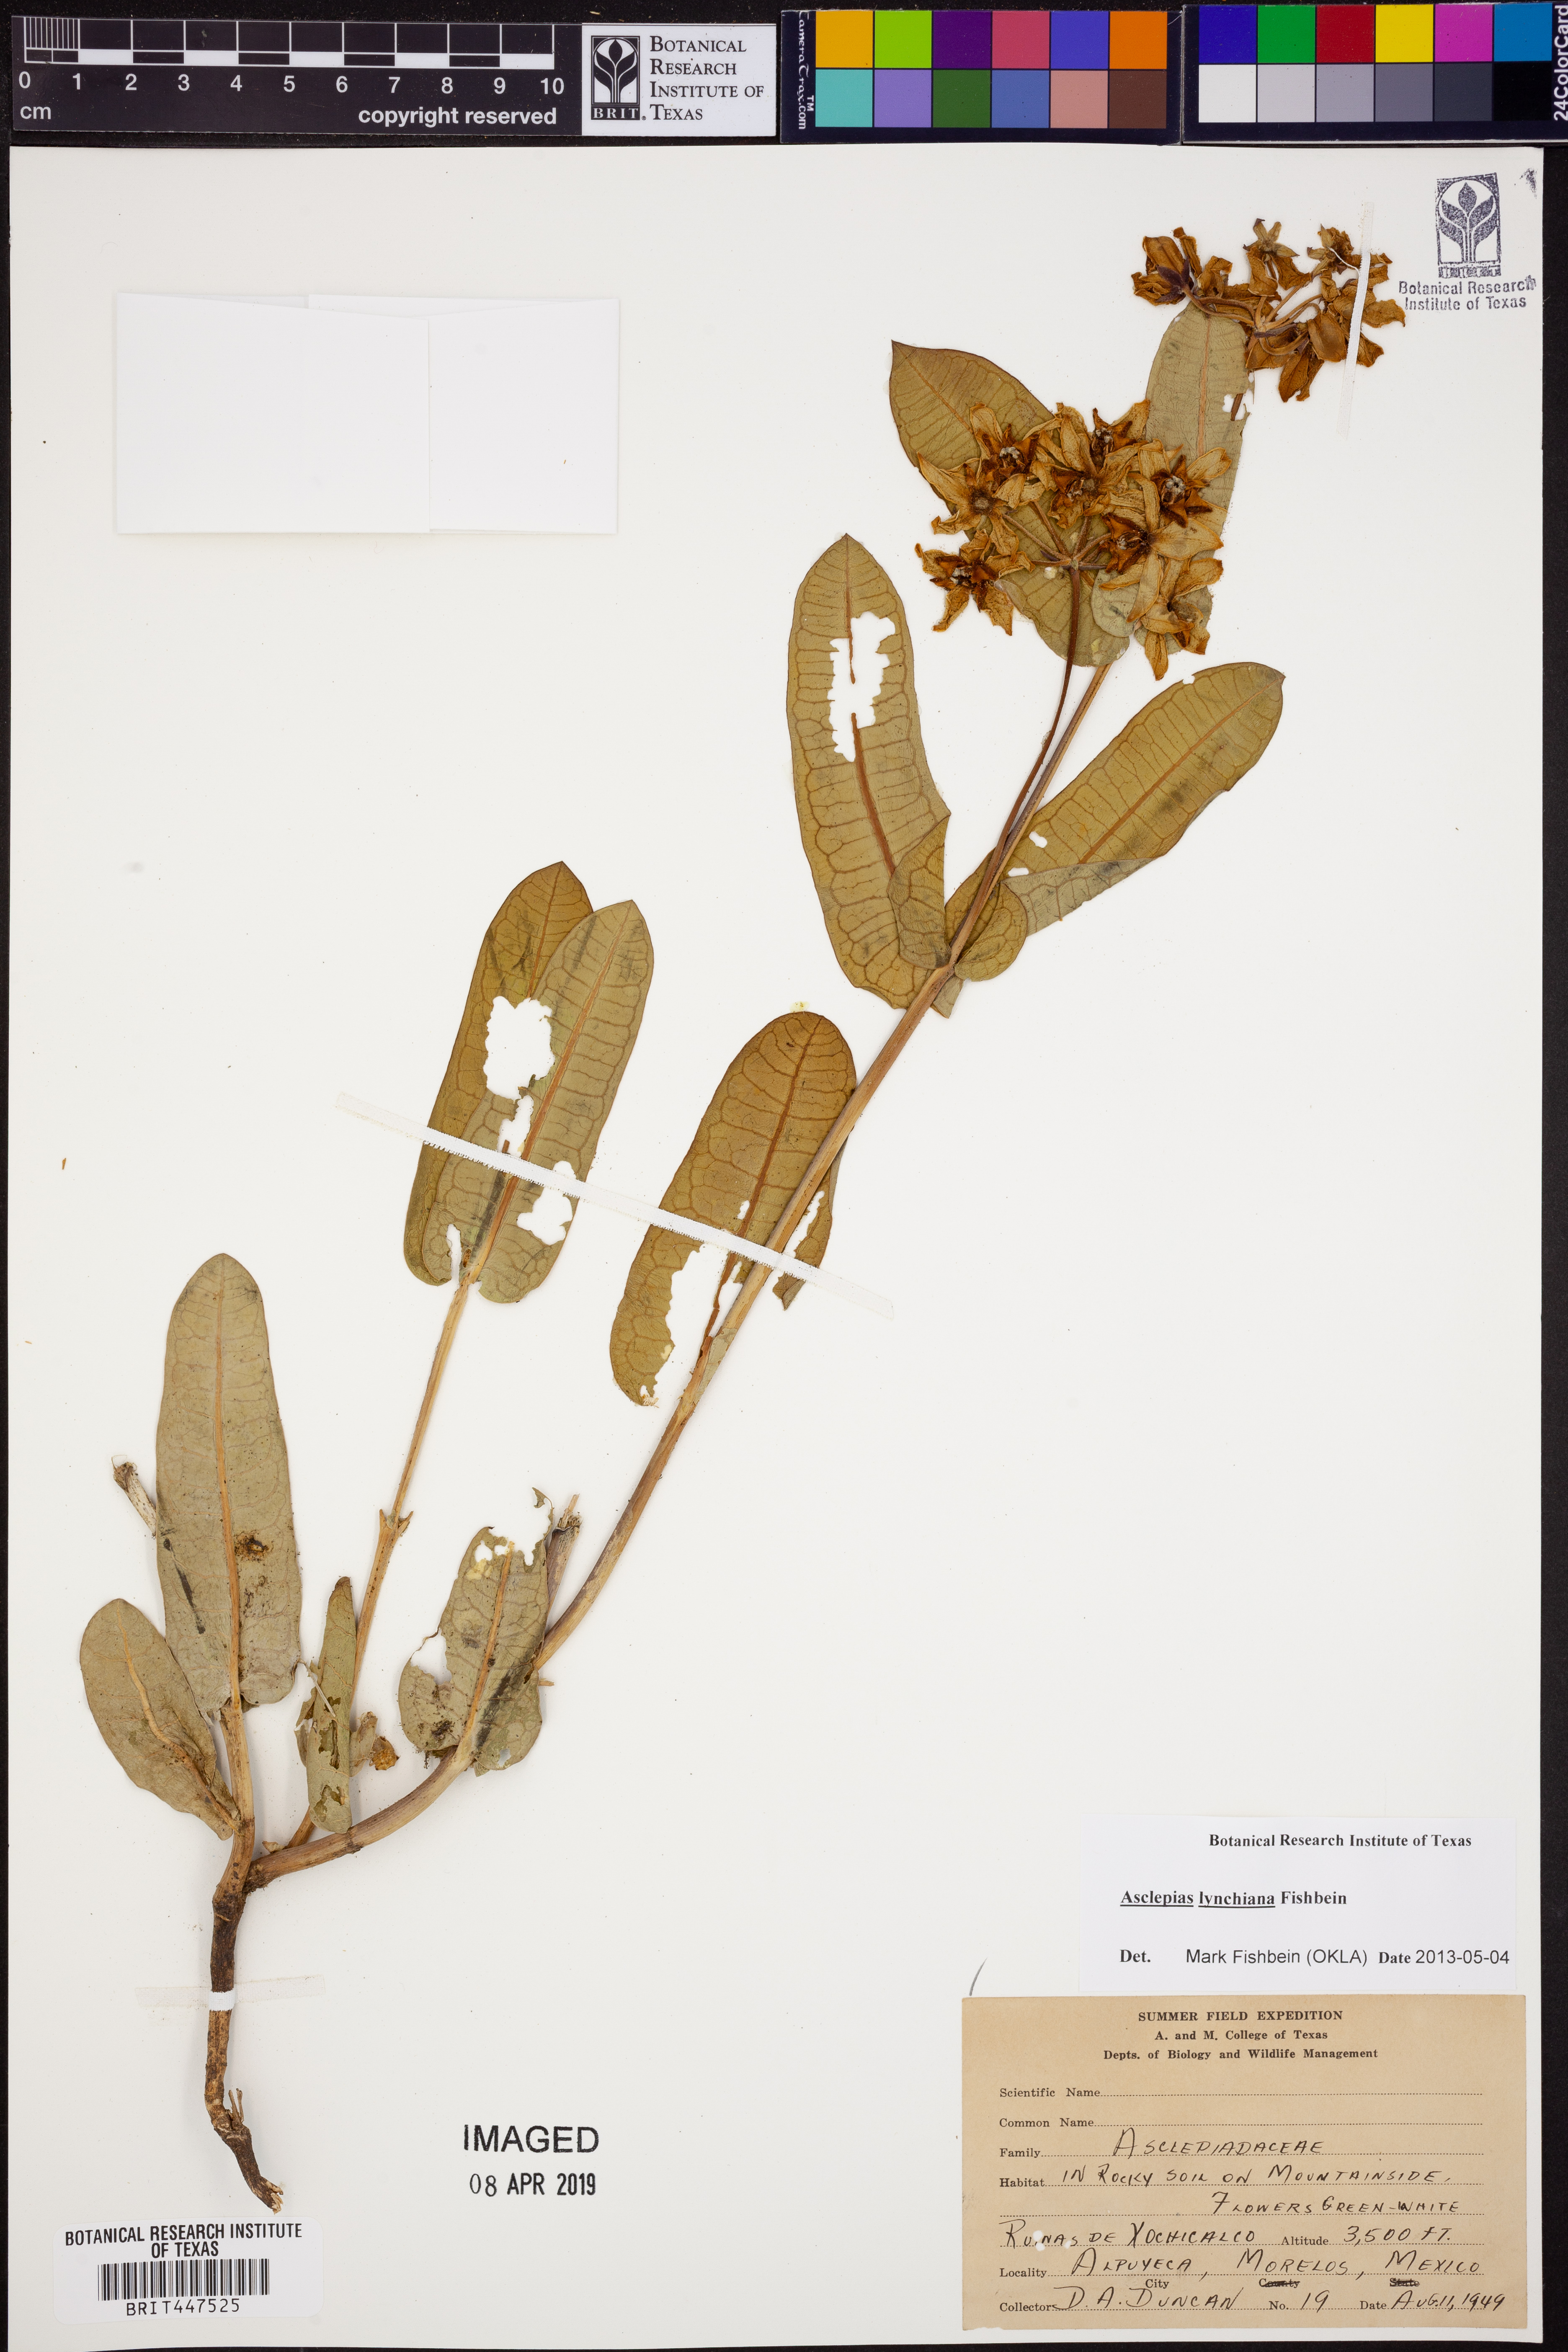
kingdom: Plantae
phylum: Tracheophyta
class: Magnoliopsida
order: Gentianales
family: Apocynaceae
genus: Asclepias
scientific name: Asclepias lynchiana
